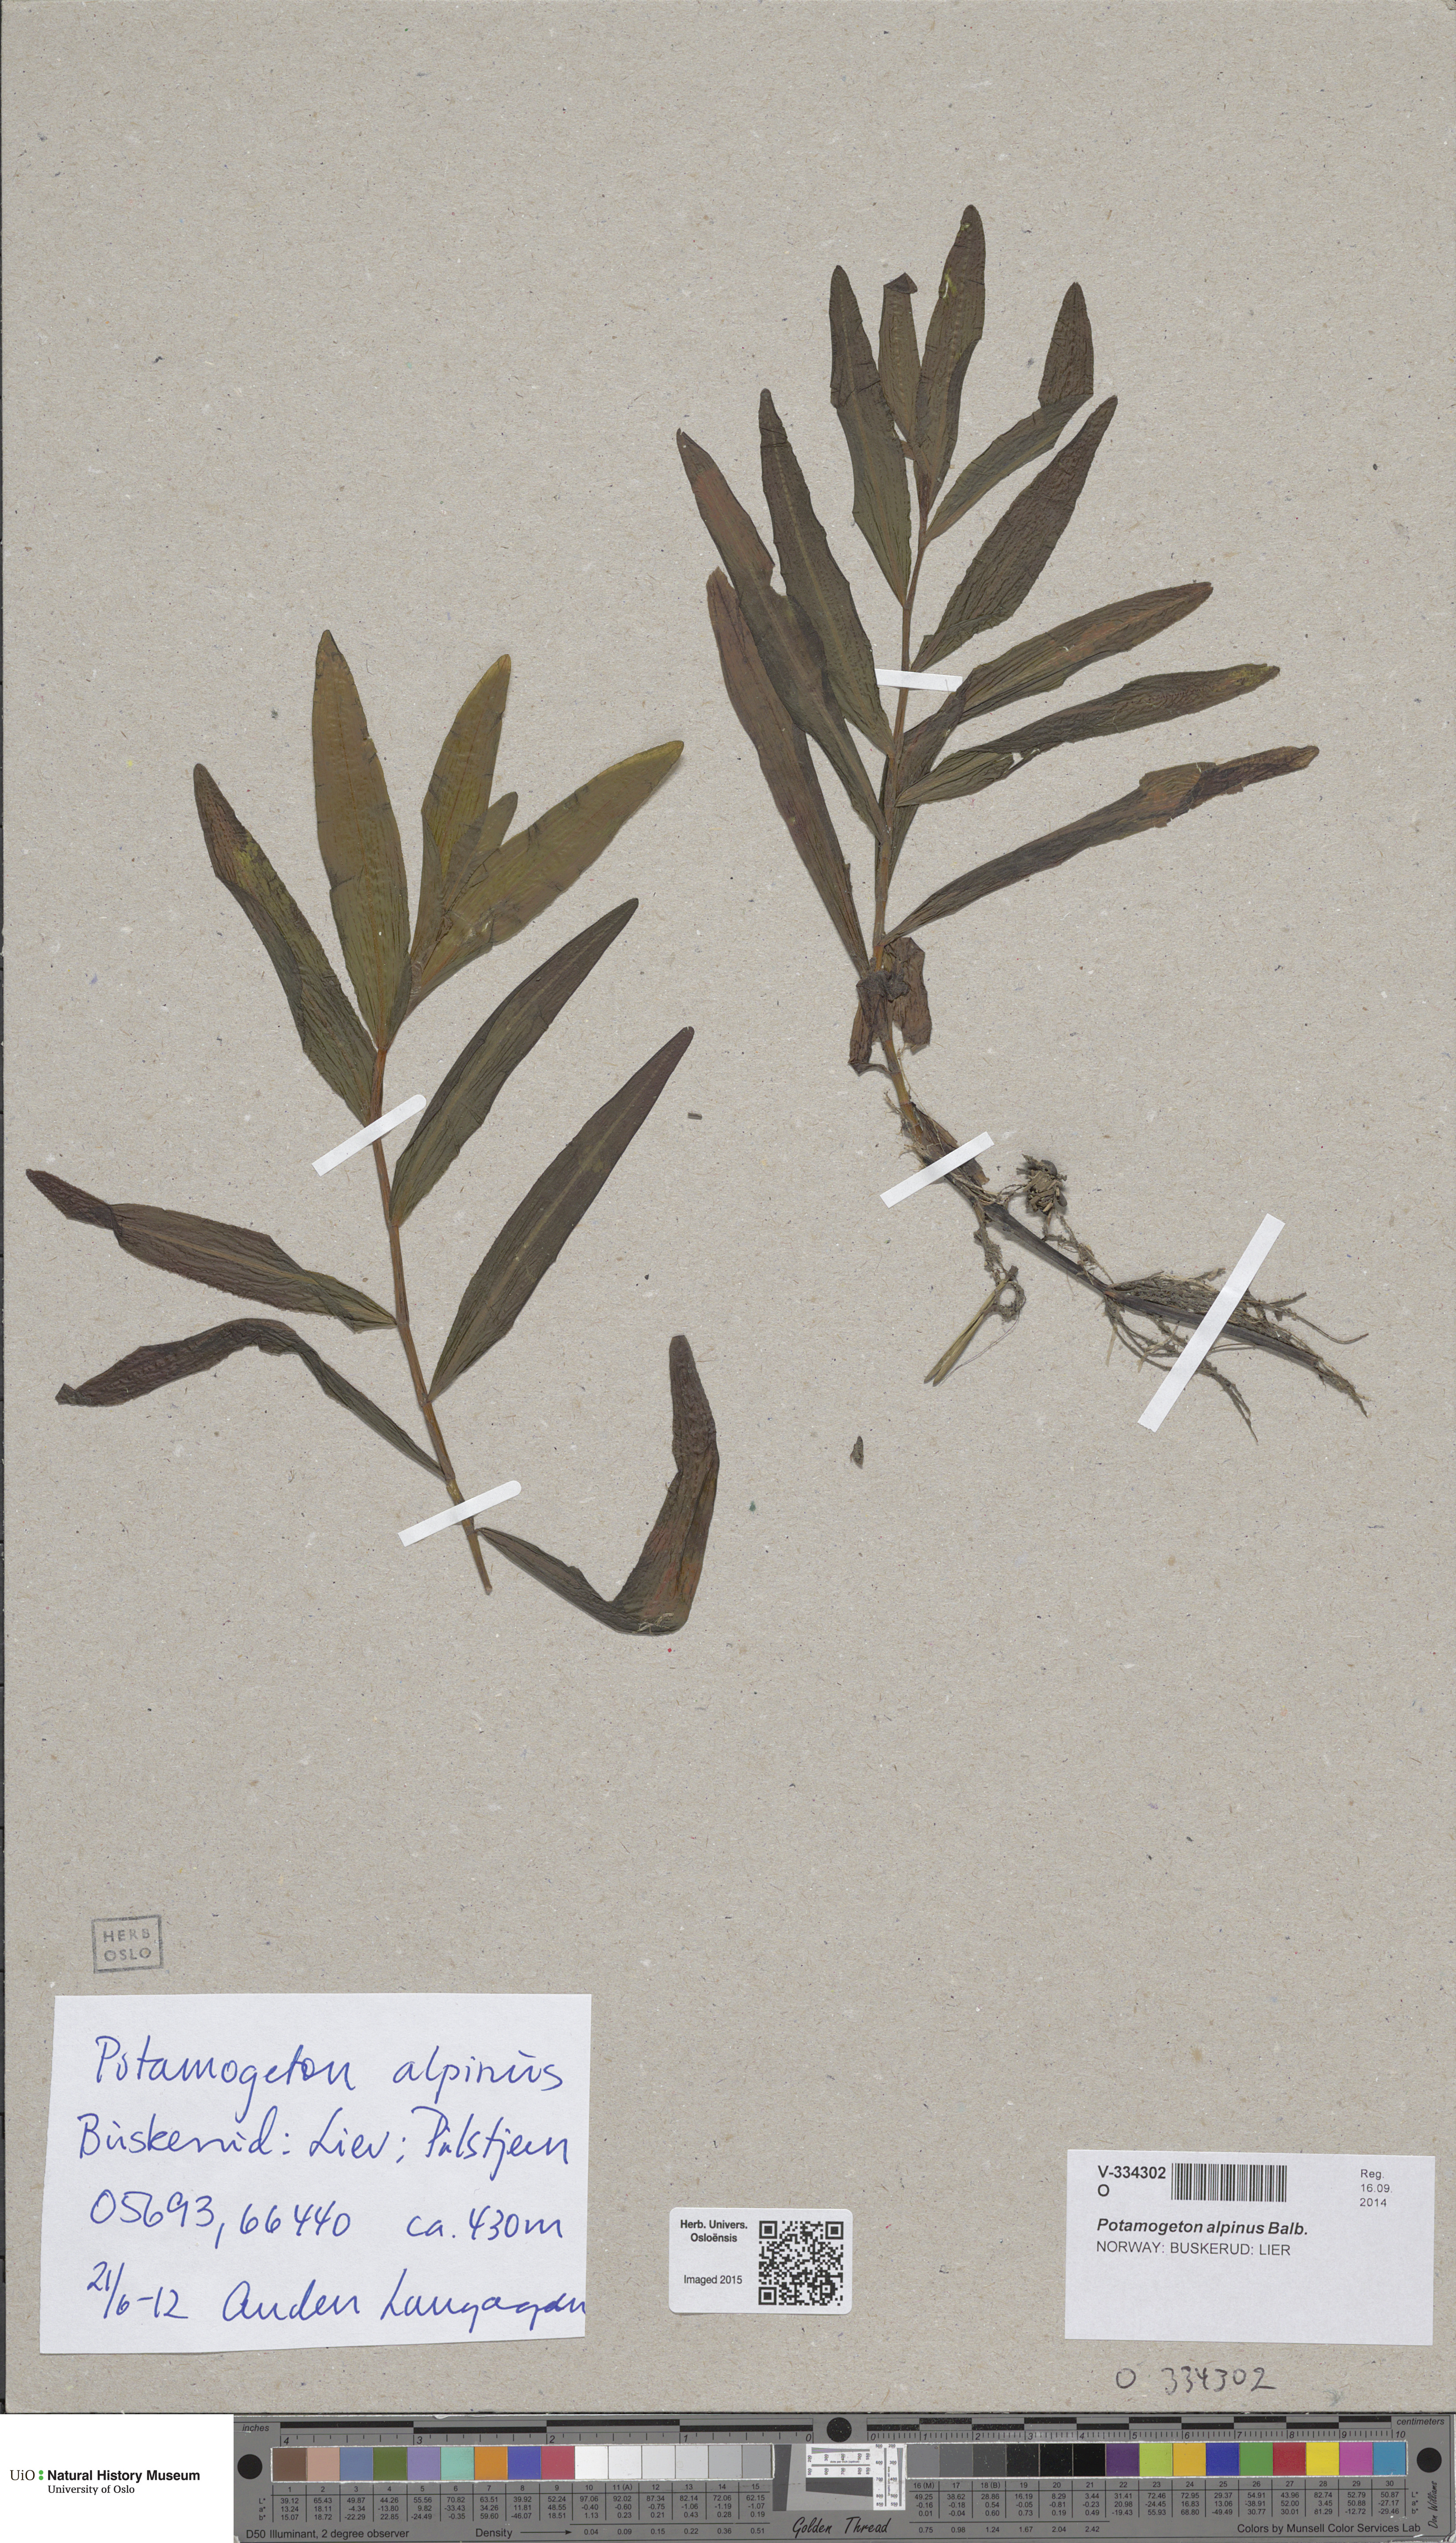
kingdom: Plantae
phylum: Tracheophyta
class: Liliopsida
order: Alismatales
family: Potamogetonaceae
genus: Potamogeton
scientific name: Potamogeton alpinus
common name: Red pondweed
